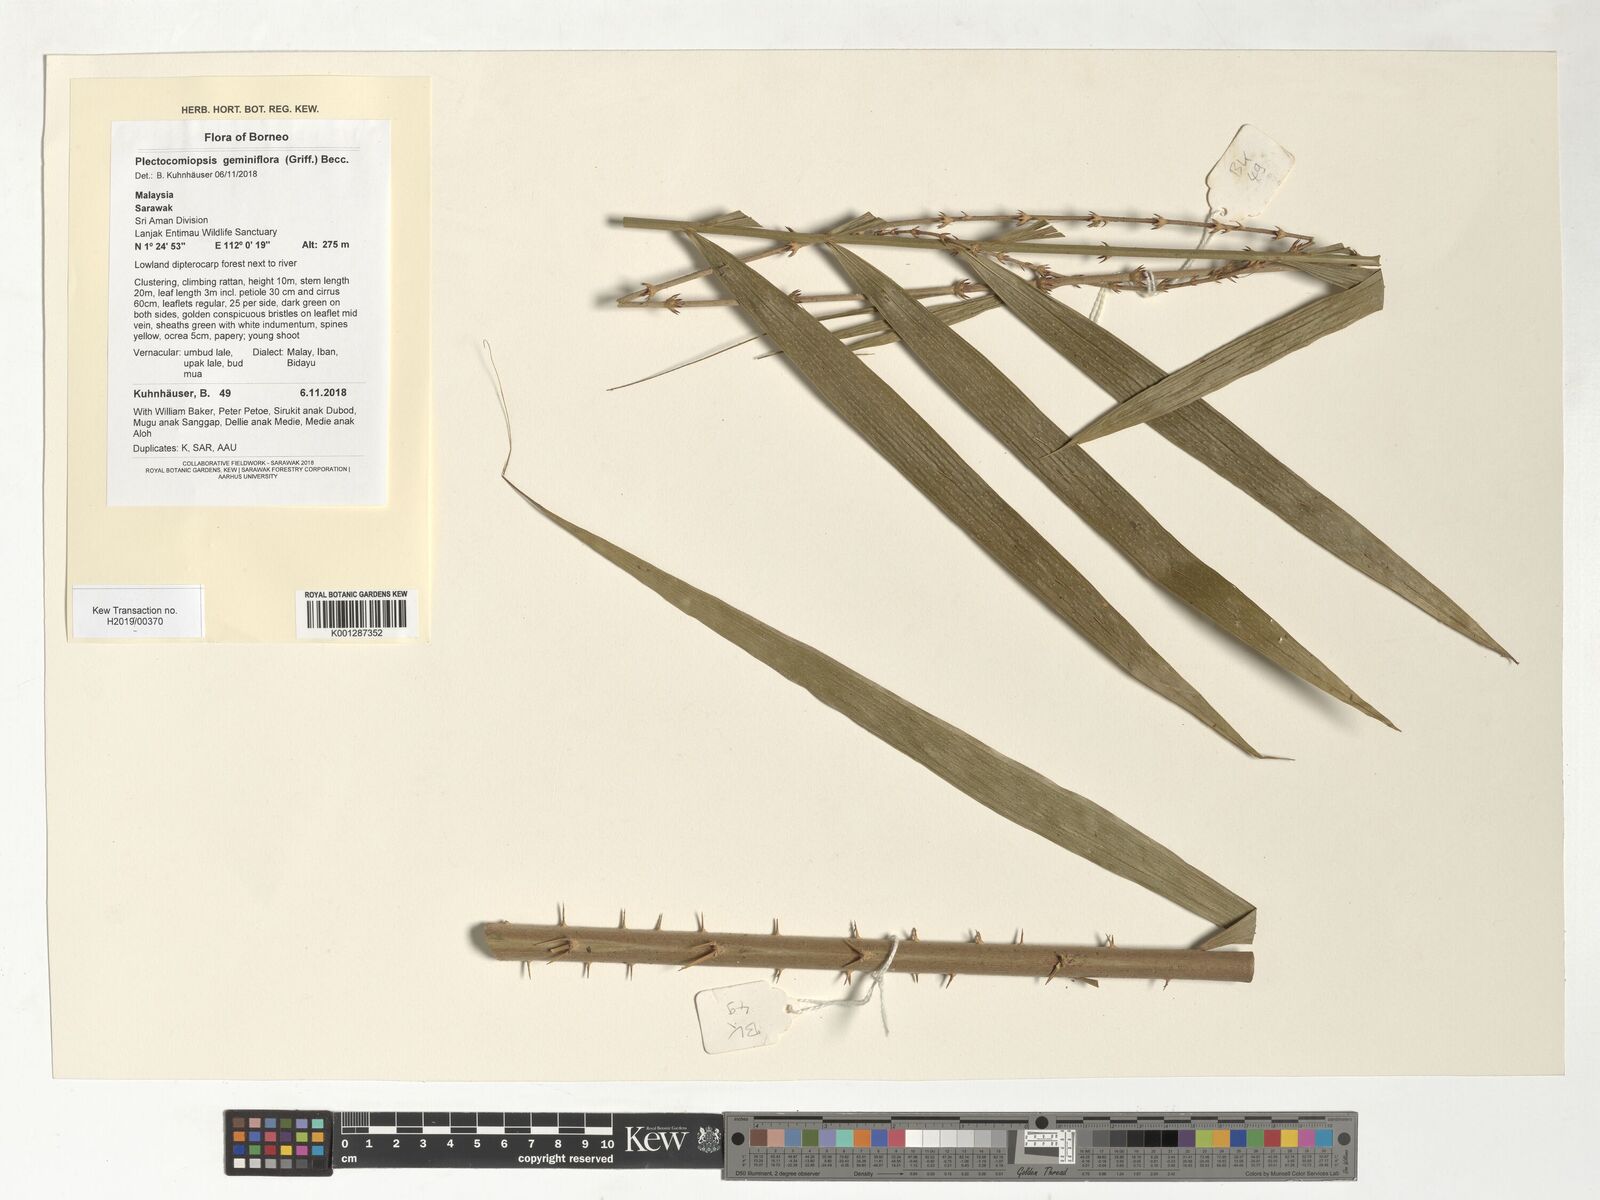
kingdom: Plantae
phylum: Tracheophyta
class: Liliopsida
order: Arecales
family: Arecaceae
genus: Plectocomiopsis
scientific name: Plectocomiopsis geminiflora
